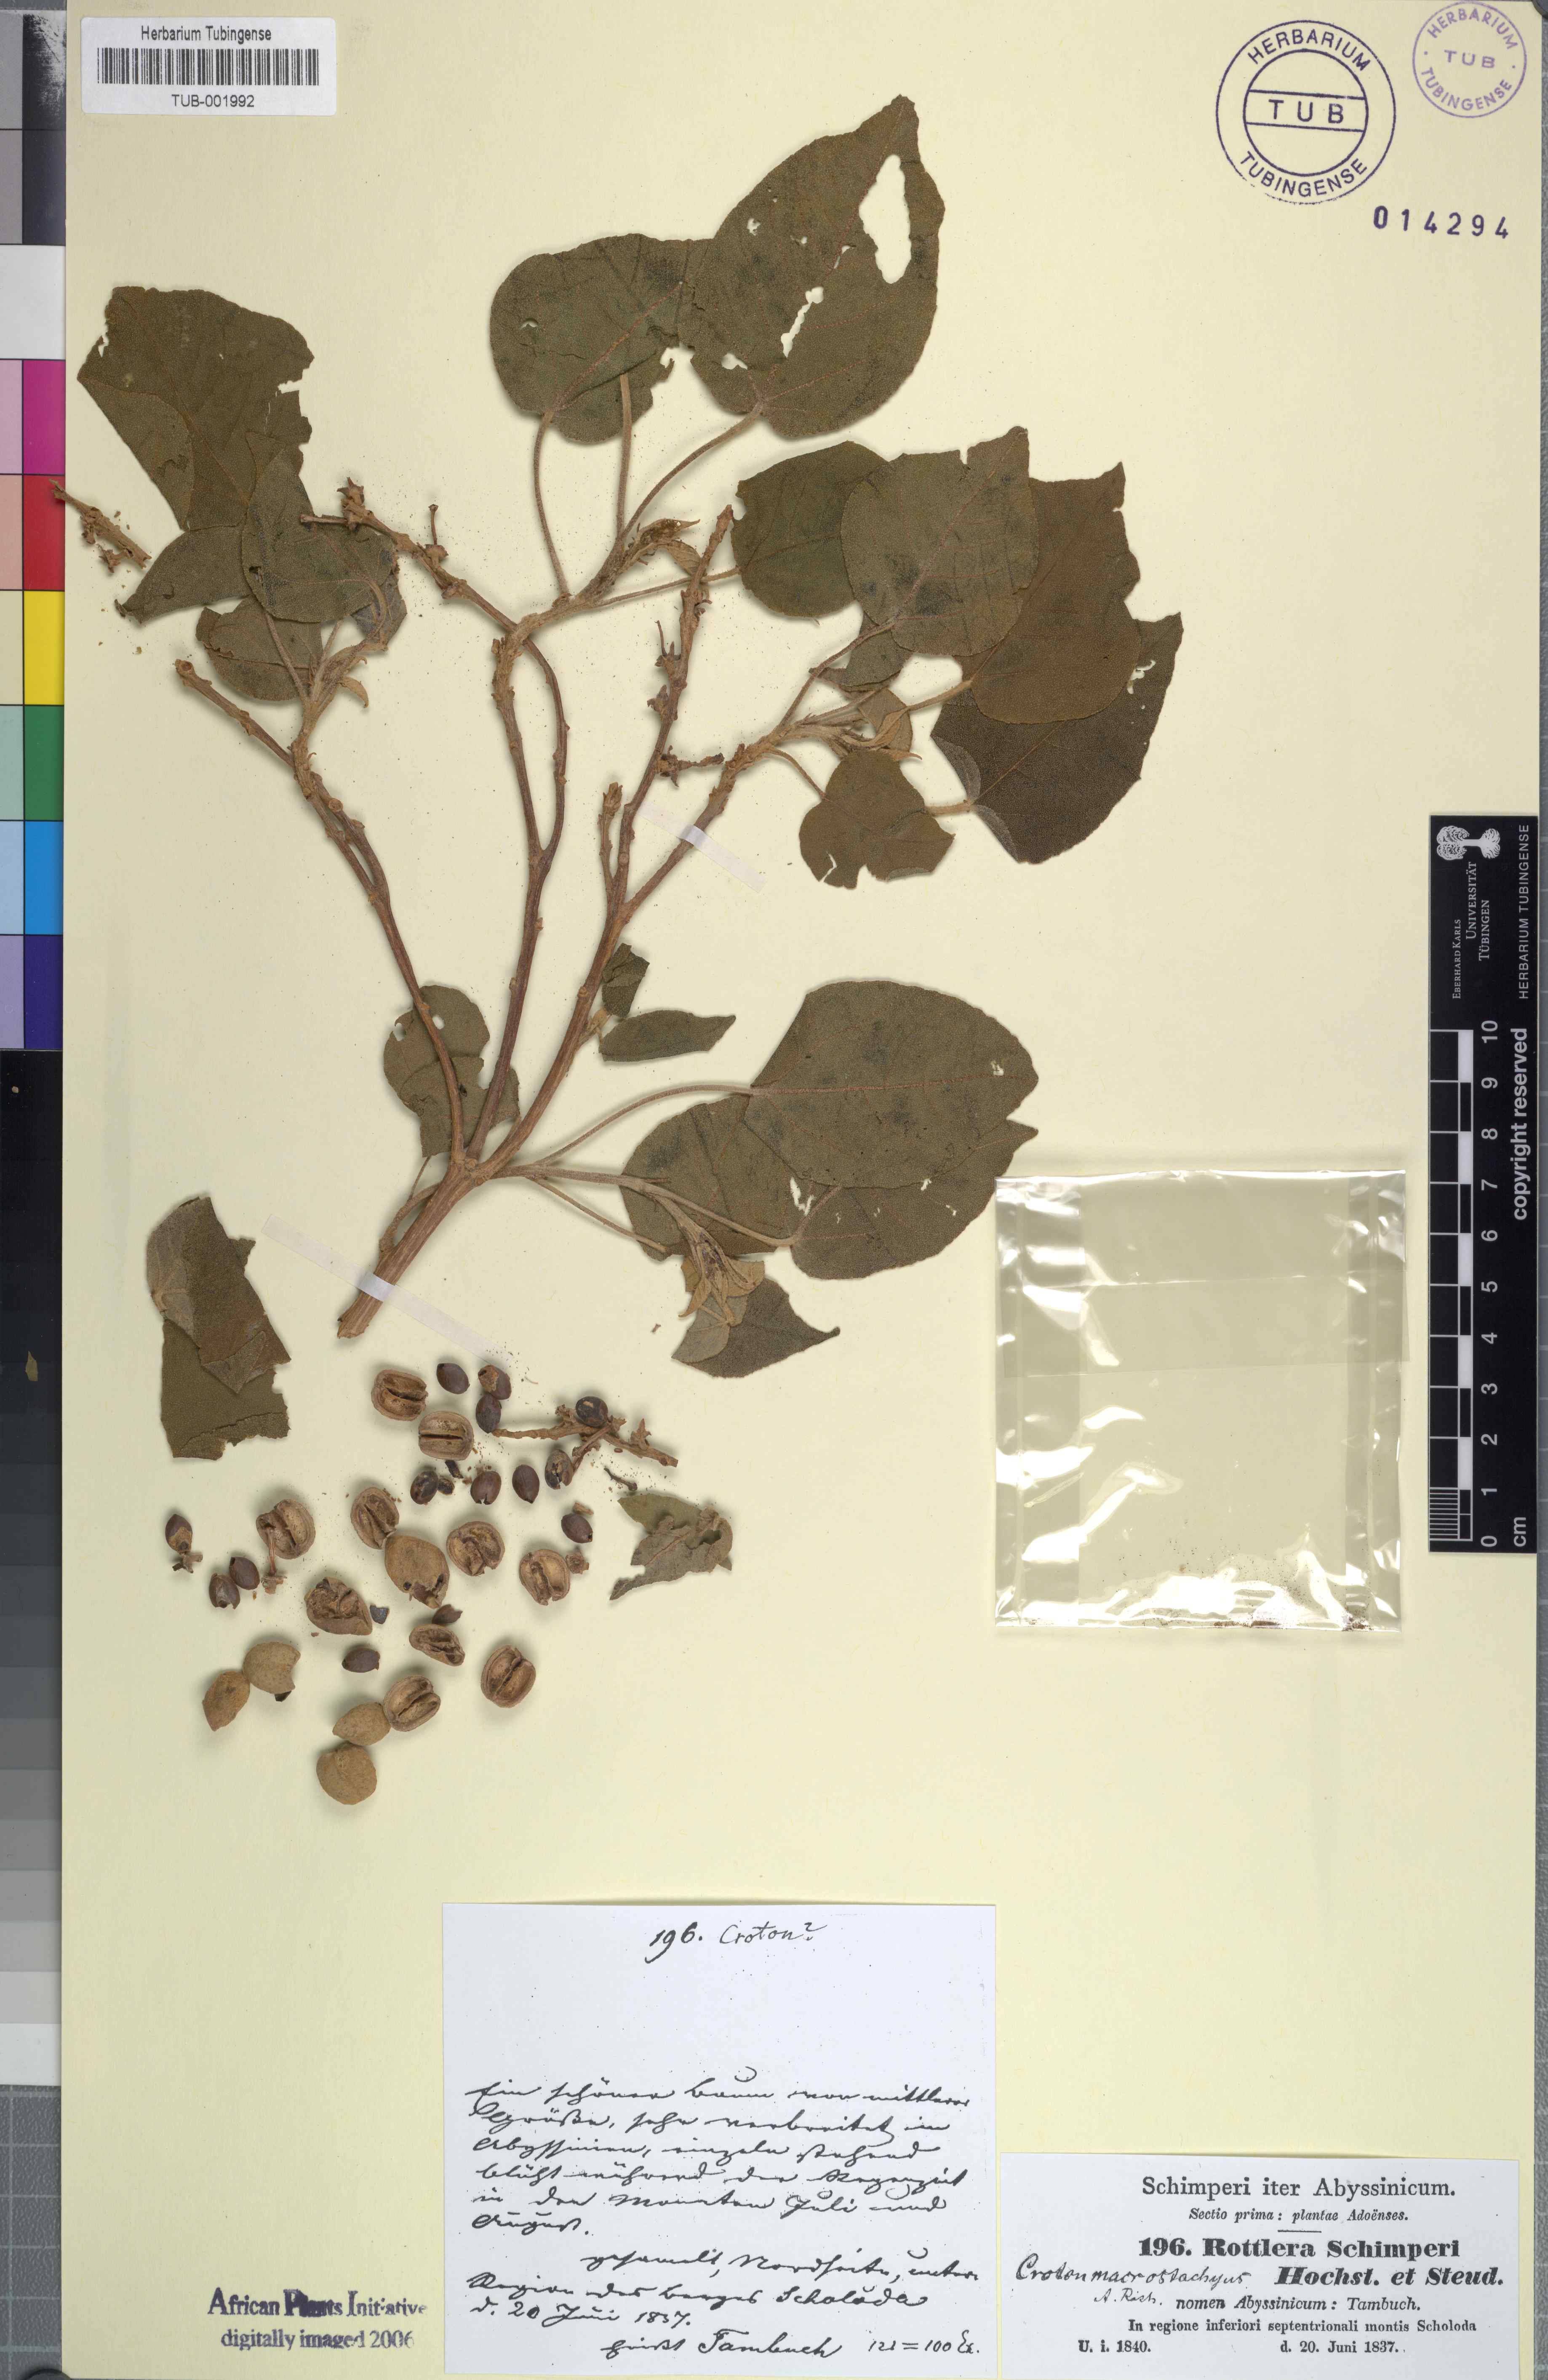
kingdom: Plantae
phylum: Tracheophyta
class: Magnoliopsida
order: Malpighiales
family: Euphorbiaceae
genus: Croton
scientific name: Croton macrostachys
